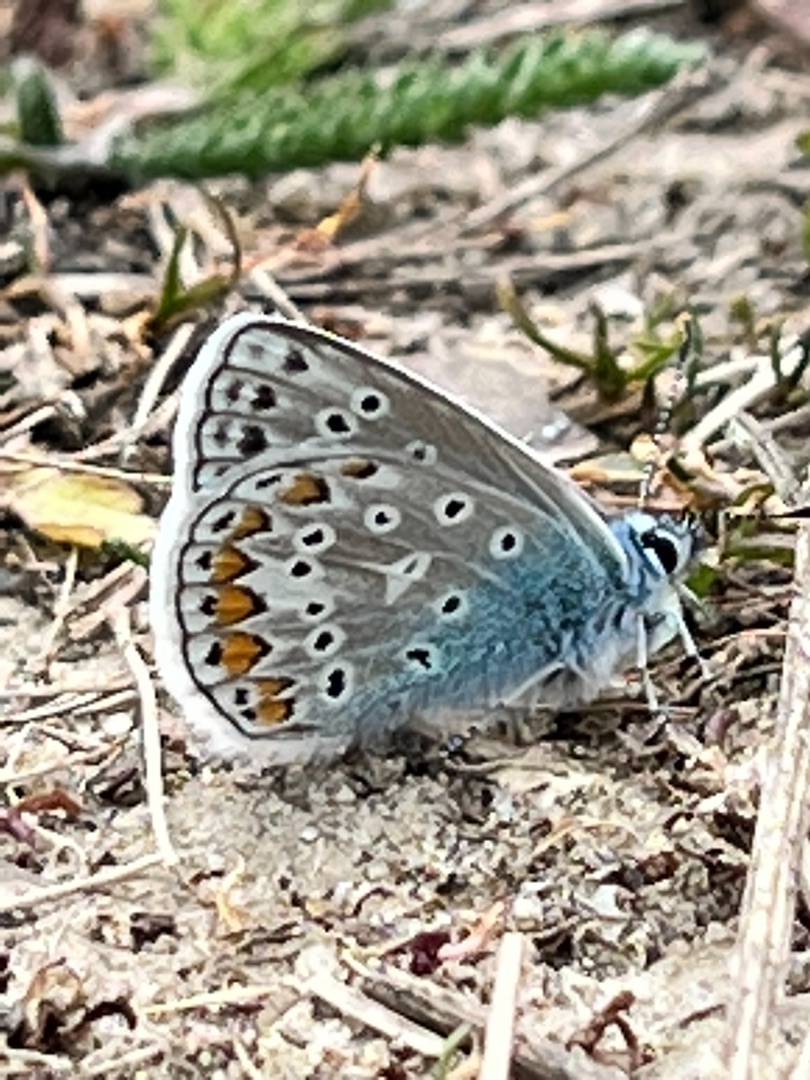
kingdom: Animalia
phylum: Arthropoda
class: Insecta
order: Lepidoptera
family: Lycaenidae
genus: Polyommatus
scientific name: Polyommatus icarus
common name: Almindelig blåfugl
